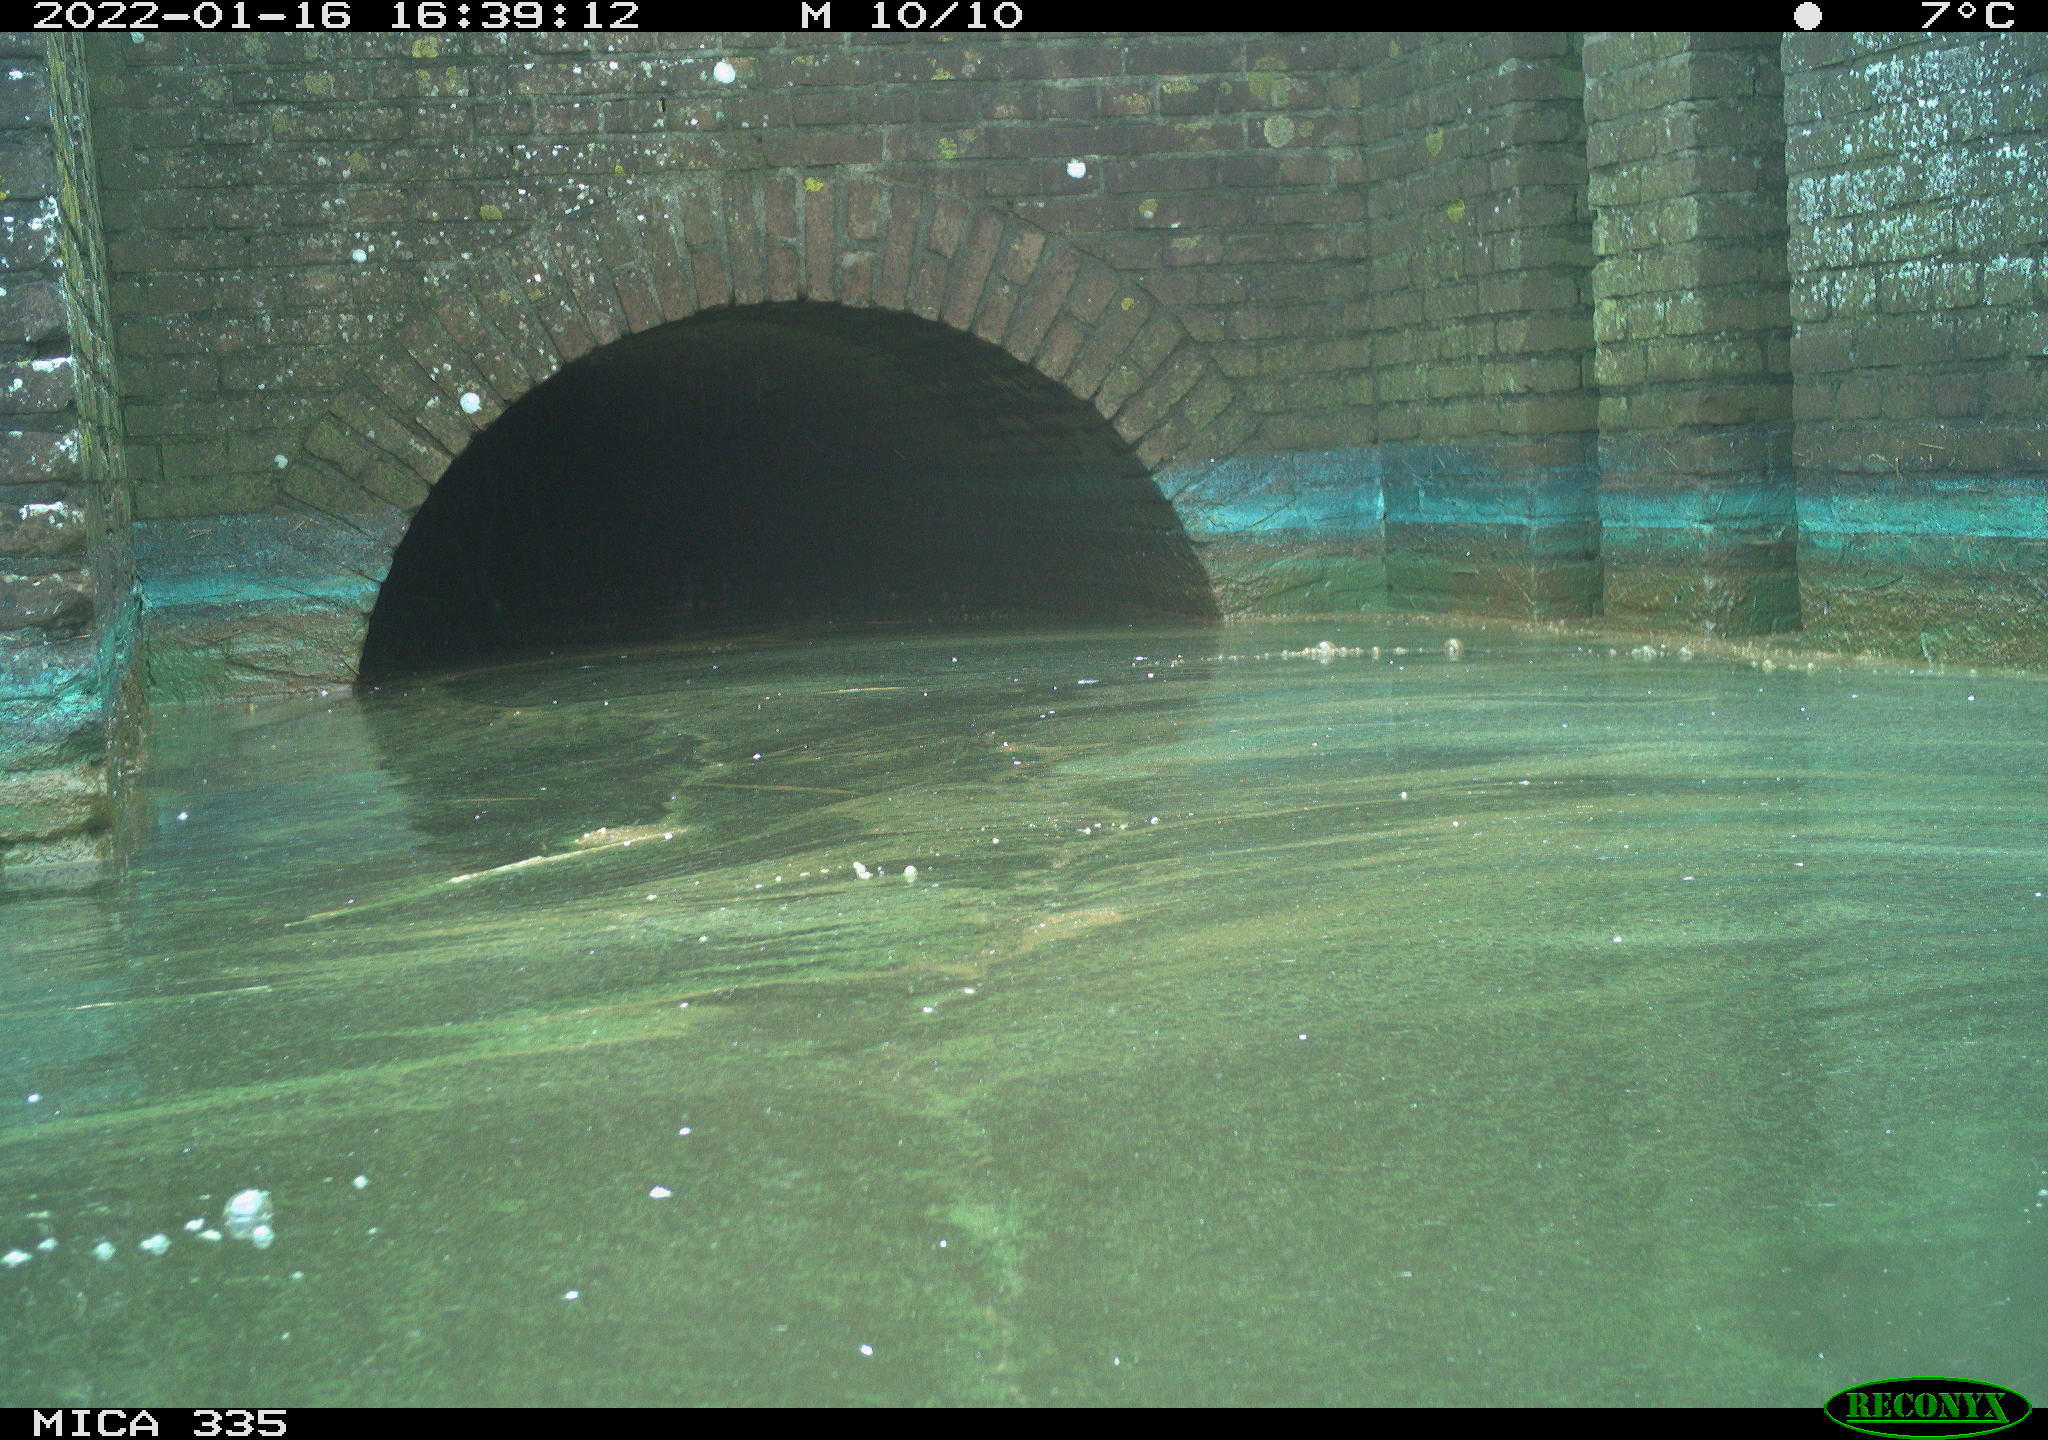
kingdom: Animalia
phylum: Chordata
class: Aves
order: Suliformes
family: Phalacrocoracidae
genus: Phalacrocorax
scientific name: Phalacrocorax carbo
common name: Great cormorant
